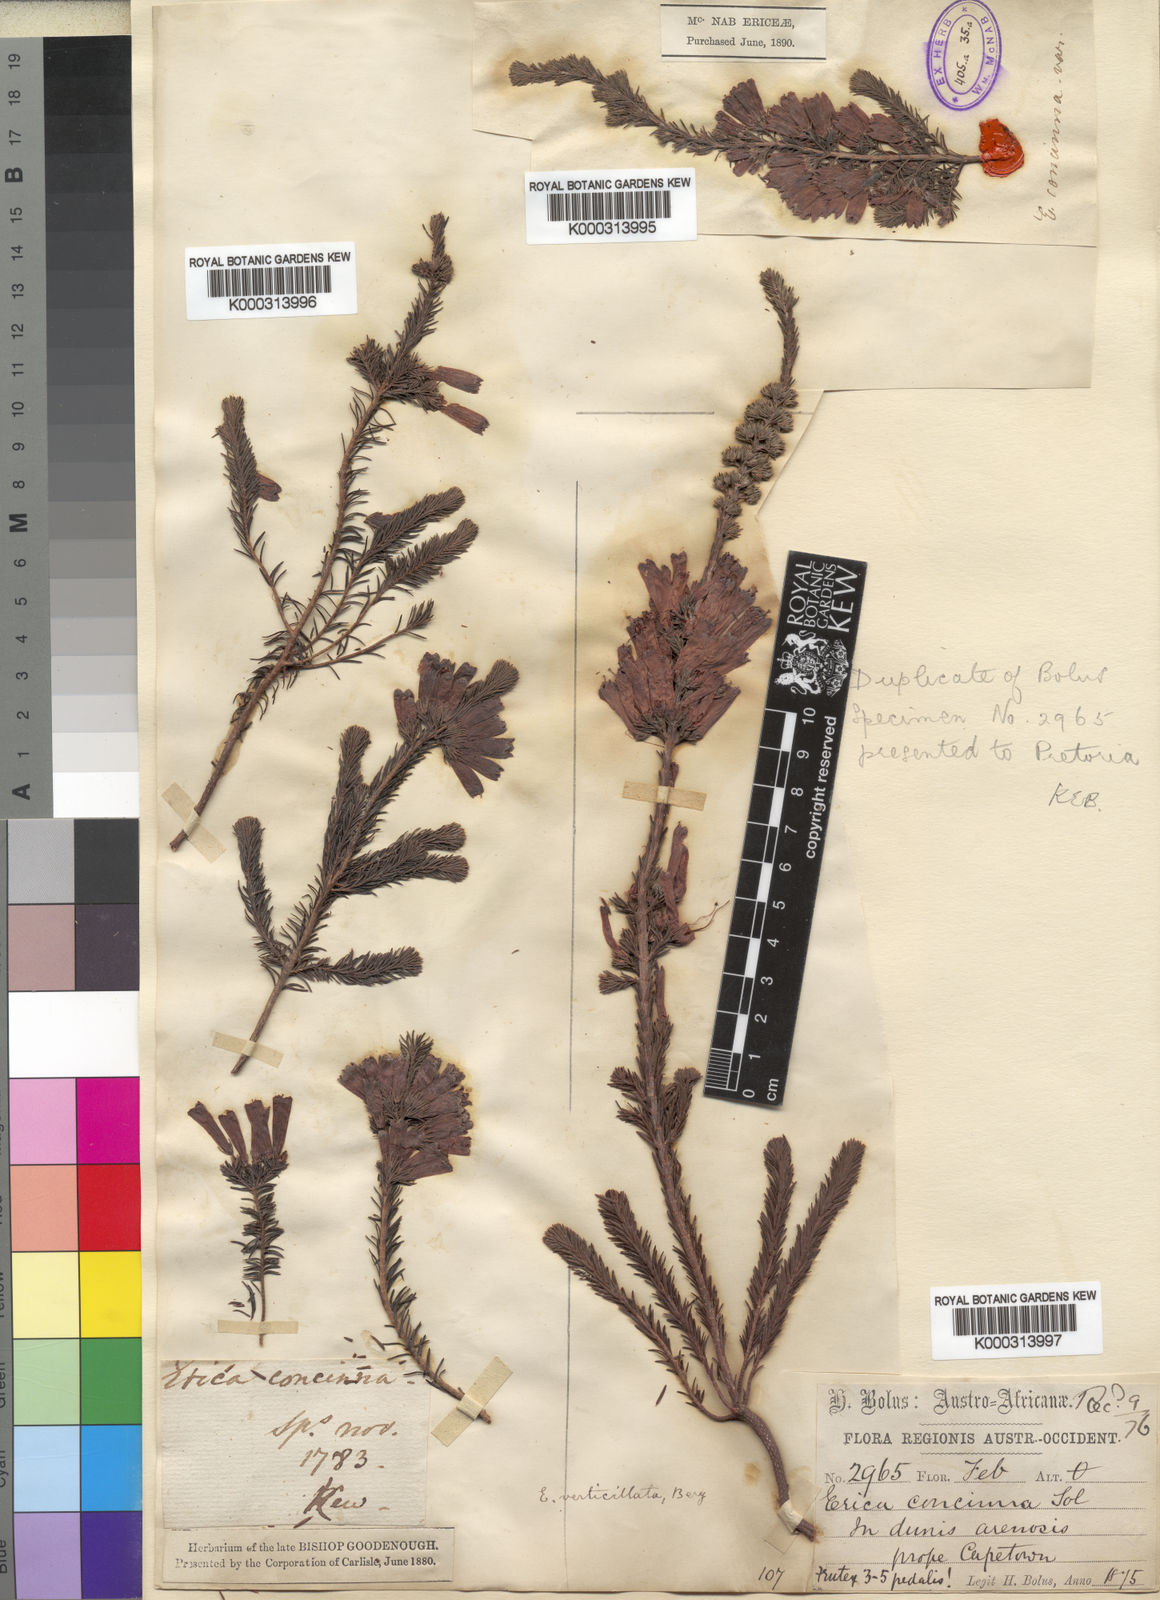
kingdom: Plantae
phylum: Tracheophyta
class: Magnoliopsida
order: Ericales
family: Ericaceae
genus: Erica
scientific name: Erica verticillata
